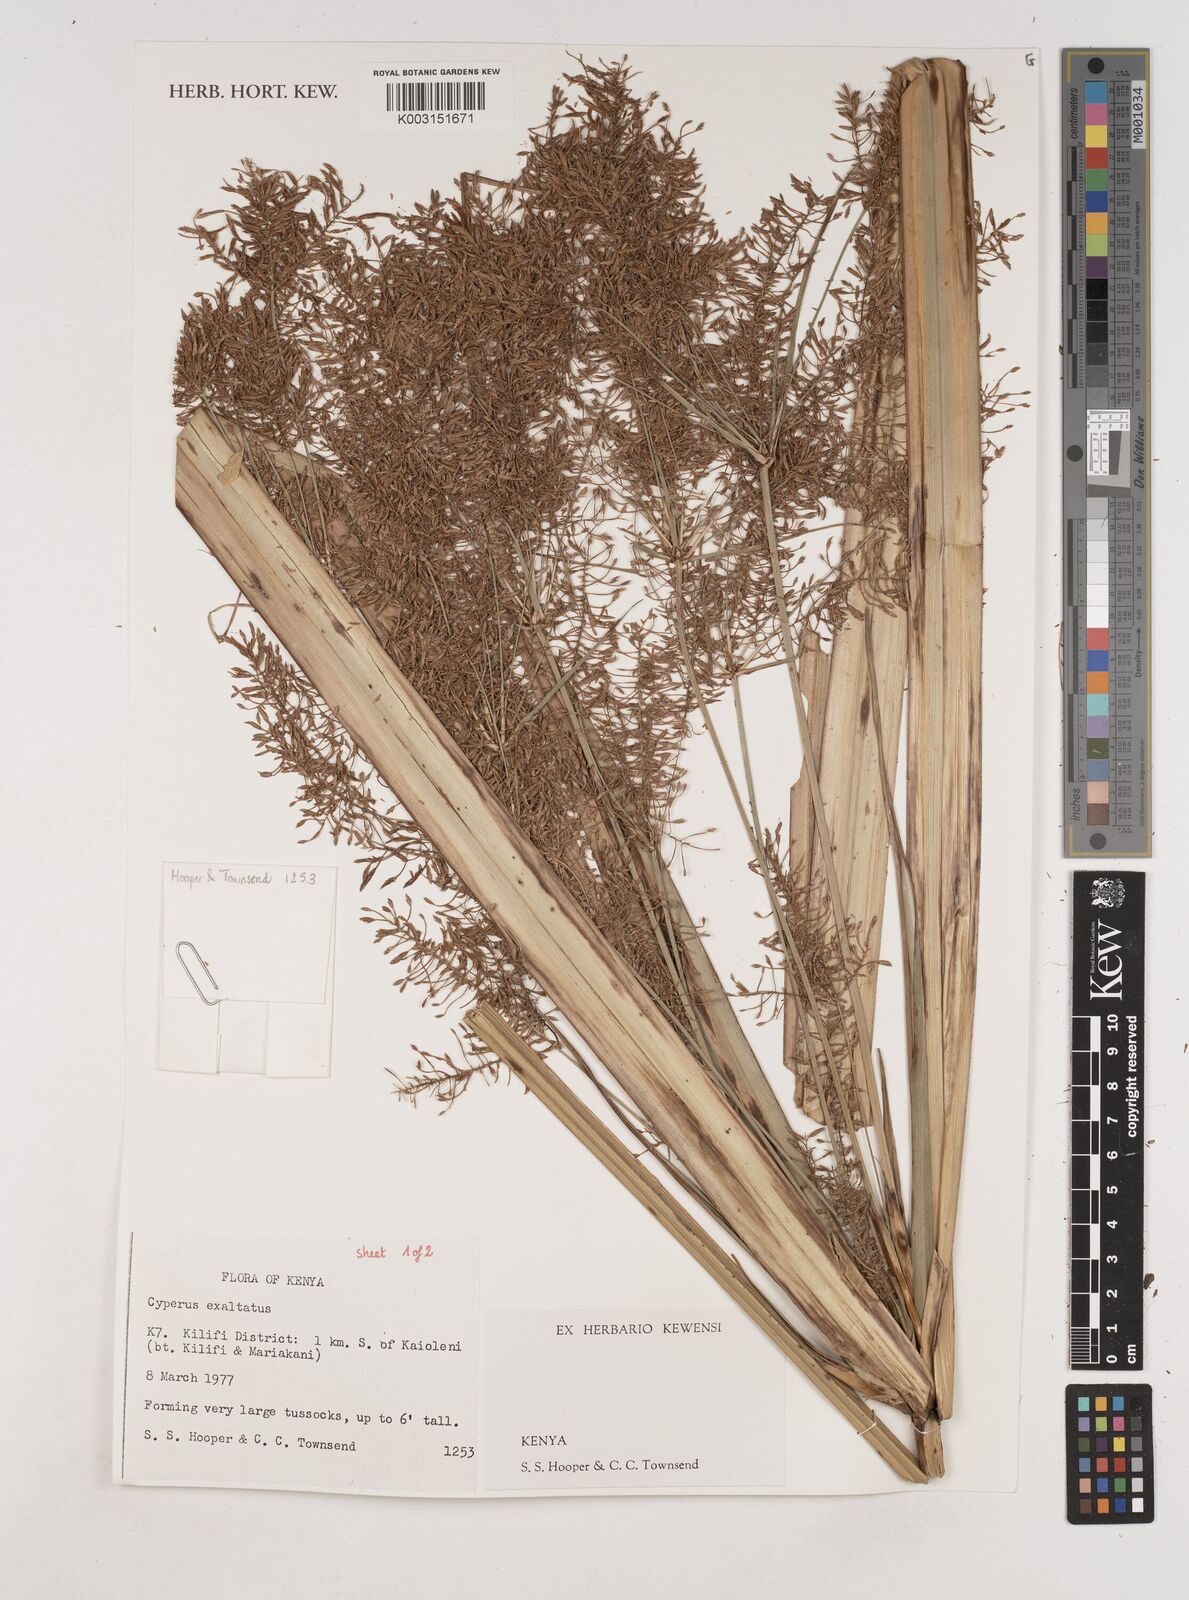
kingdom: Plantae
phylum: Tracheophyta
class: Liliopsida
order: Poales
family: Cyperaceae
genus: Cyperus
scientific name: Cyperus exaltatus
